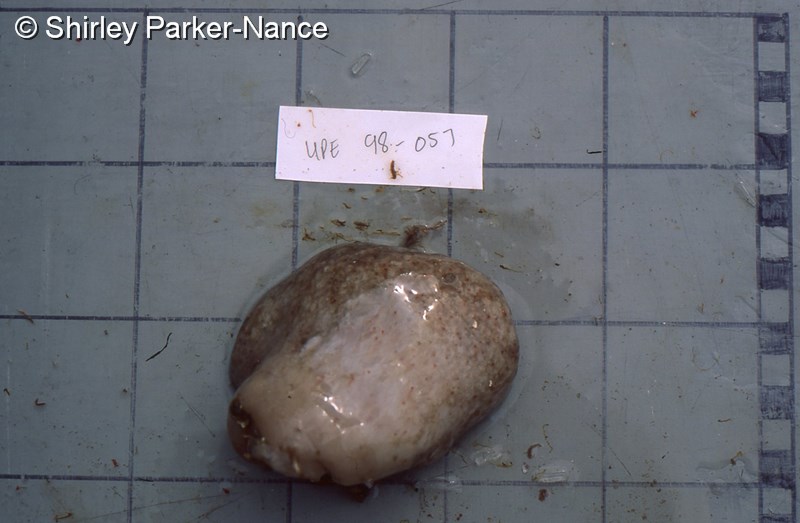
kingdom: Animalia
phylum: Chordata
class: Ascidiacea
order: Aplousobranchia
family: Pseudodistomidae
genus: Pseudodistoma
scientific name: Pseudodistoma
